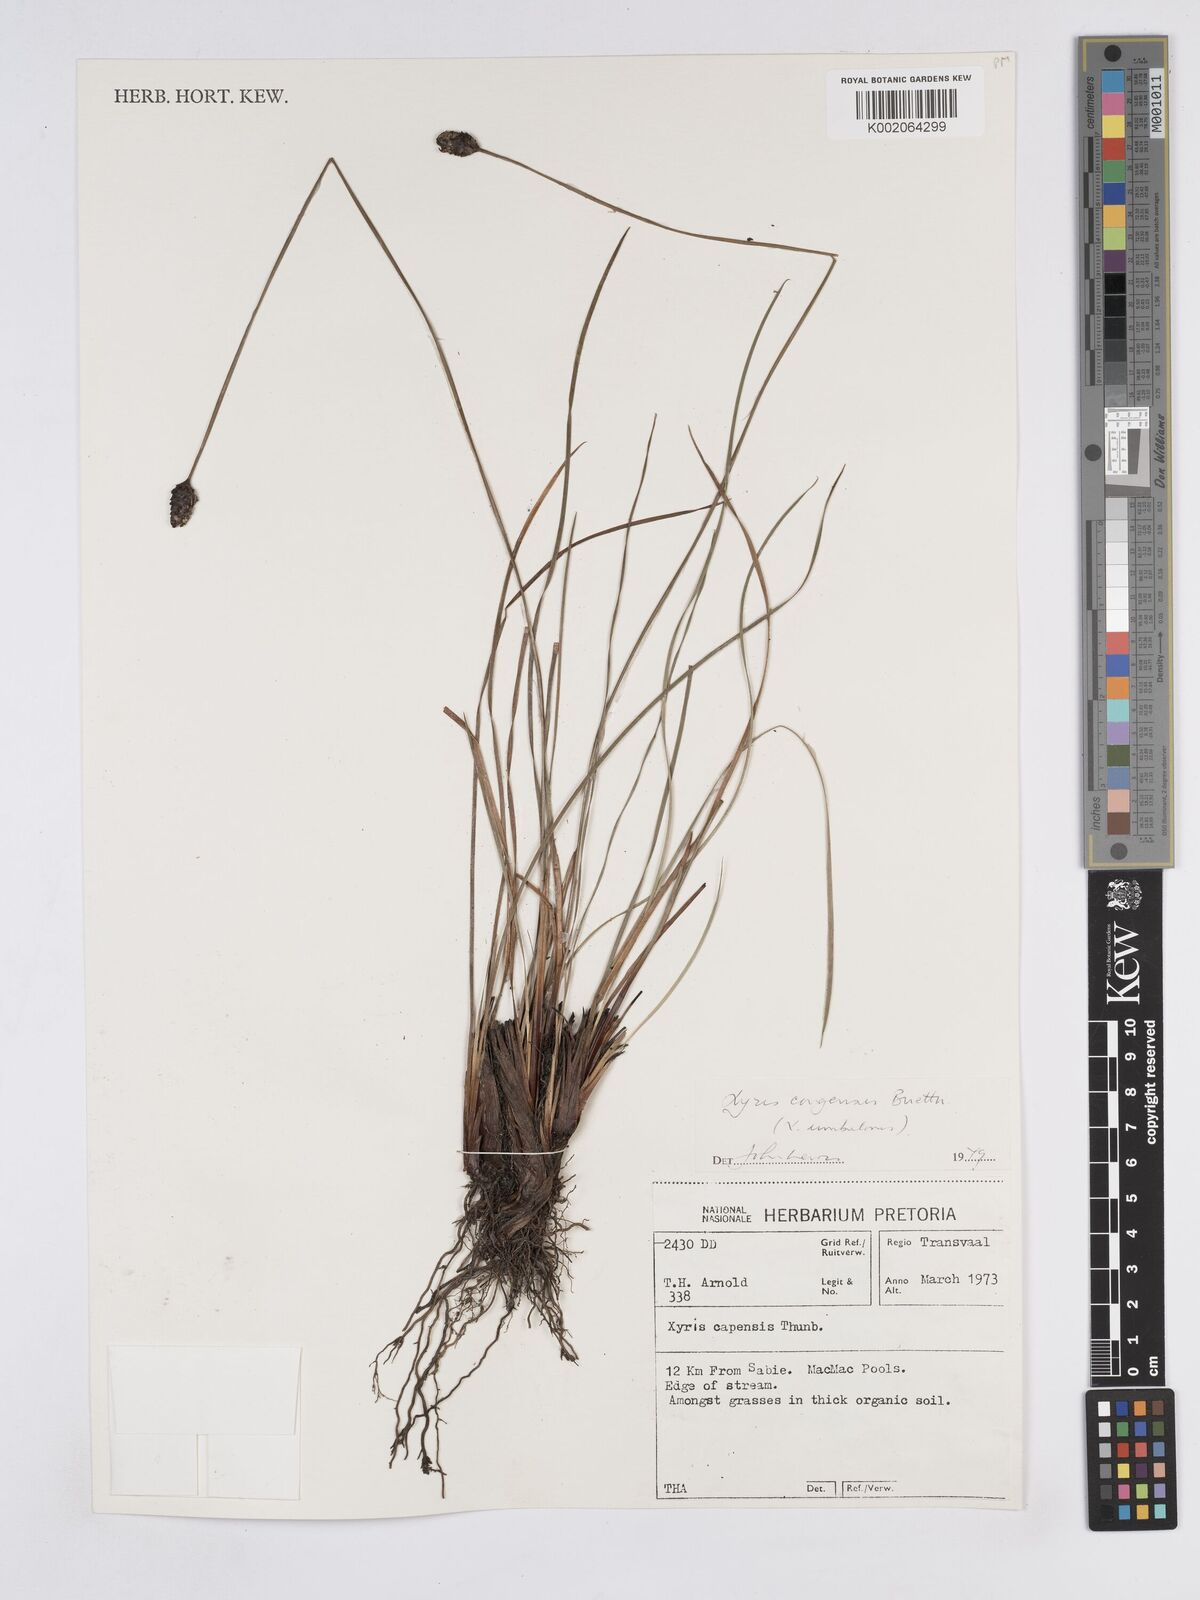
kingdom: Plantae
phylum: Tracheophyta
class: Liliopsida
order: Poales
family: Xyridaceae
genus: Xyris
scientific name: Xyris congensis
